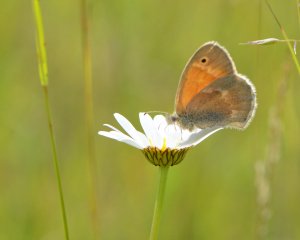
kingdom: Animalia
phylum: Arthropoda
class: Insecta
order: Lepidoptera
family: Nymphalidae
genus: Coenonympha
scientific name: Coenonympha tullia
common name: Large Heath
